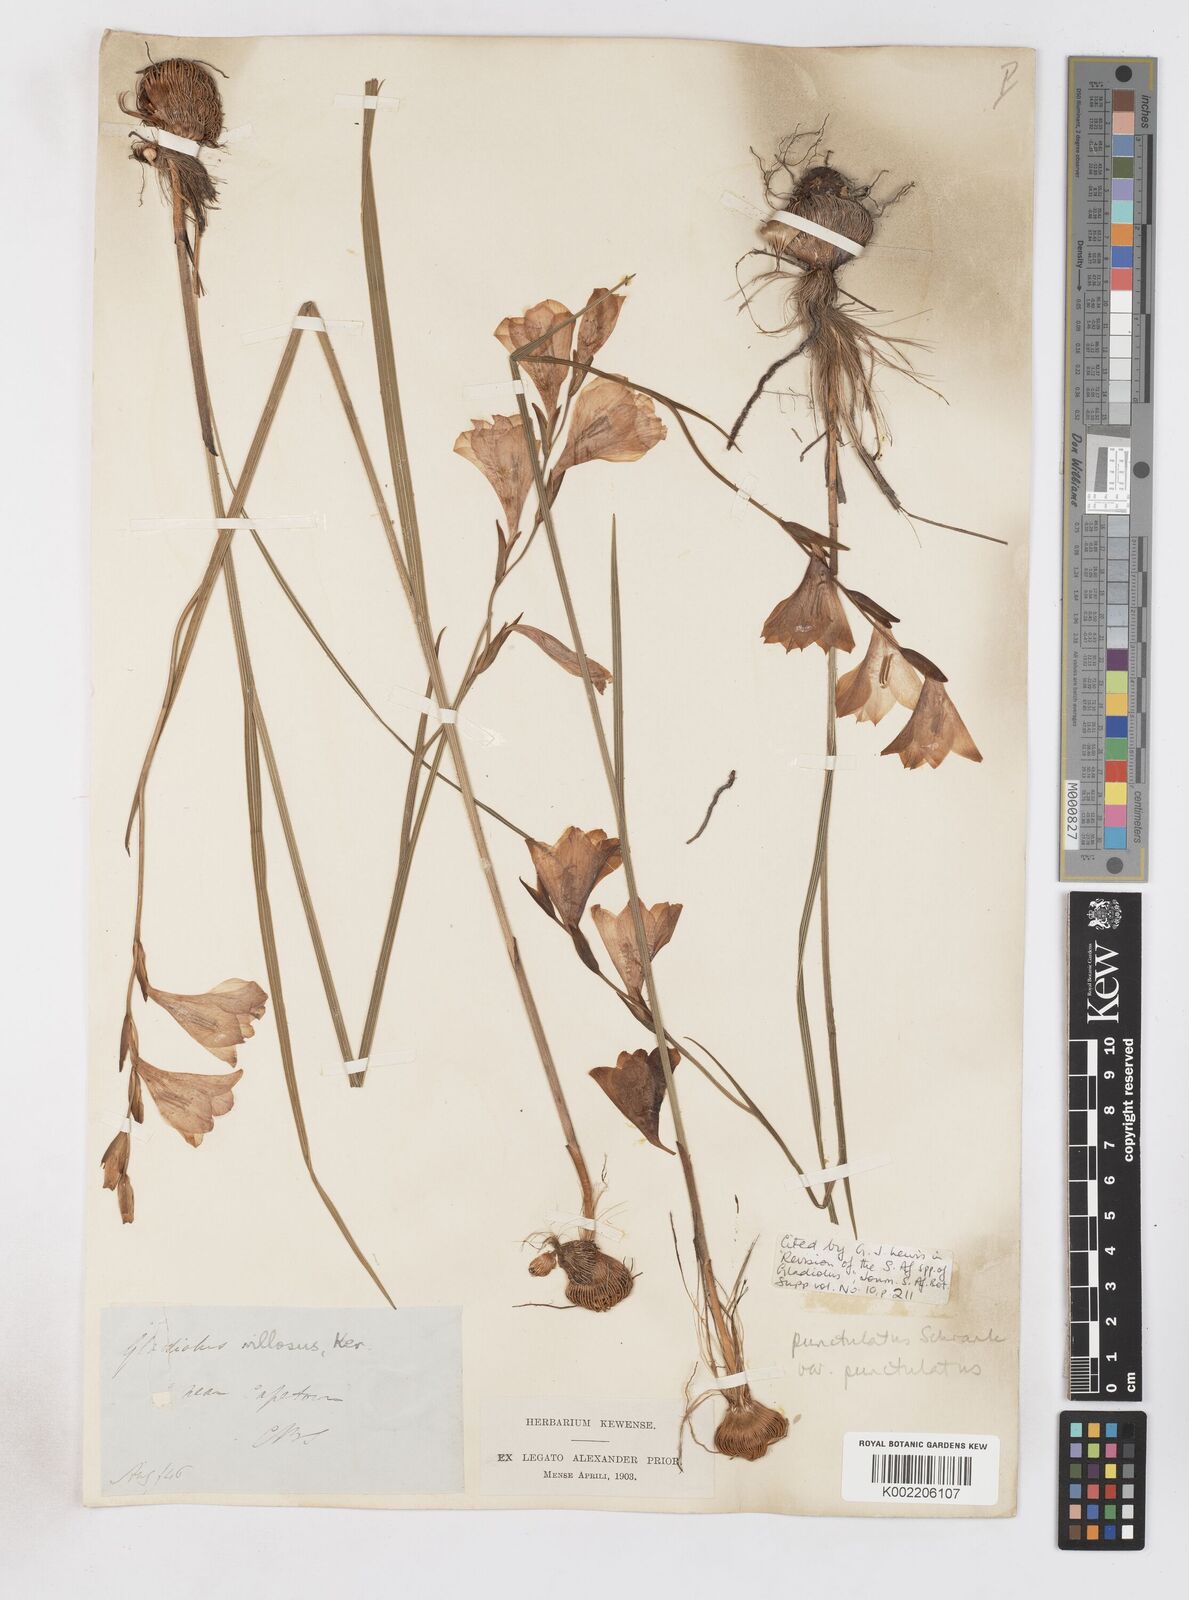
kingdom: Plantae
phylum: Tracheophyta
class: Liliopsida
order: Asparagales
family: Iridaceae
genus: Gladiolus
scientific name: Gladiolus hirsutus
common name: Small pink afrikaner
